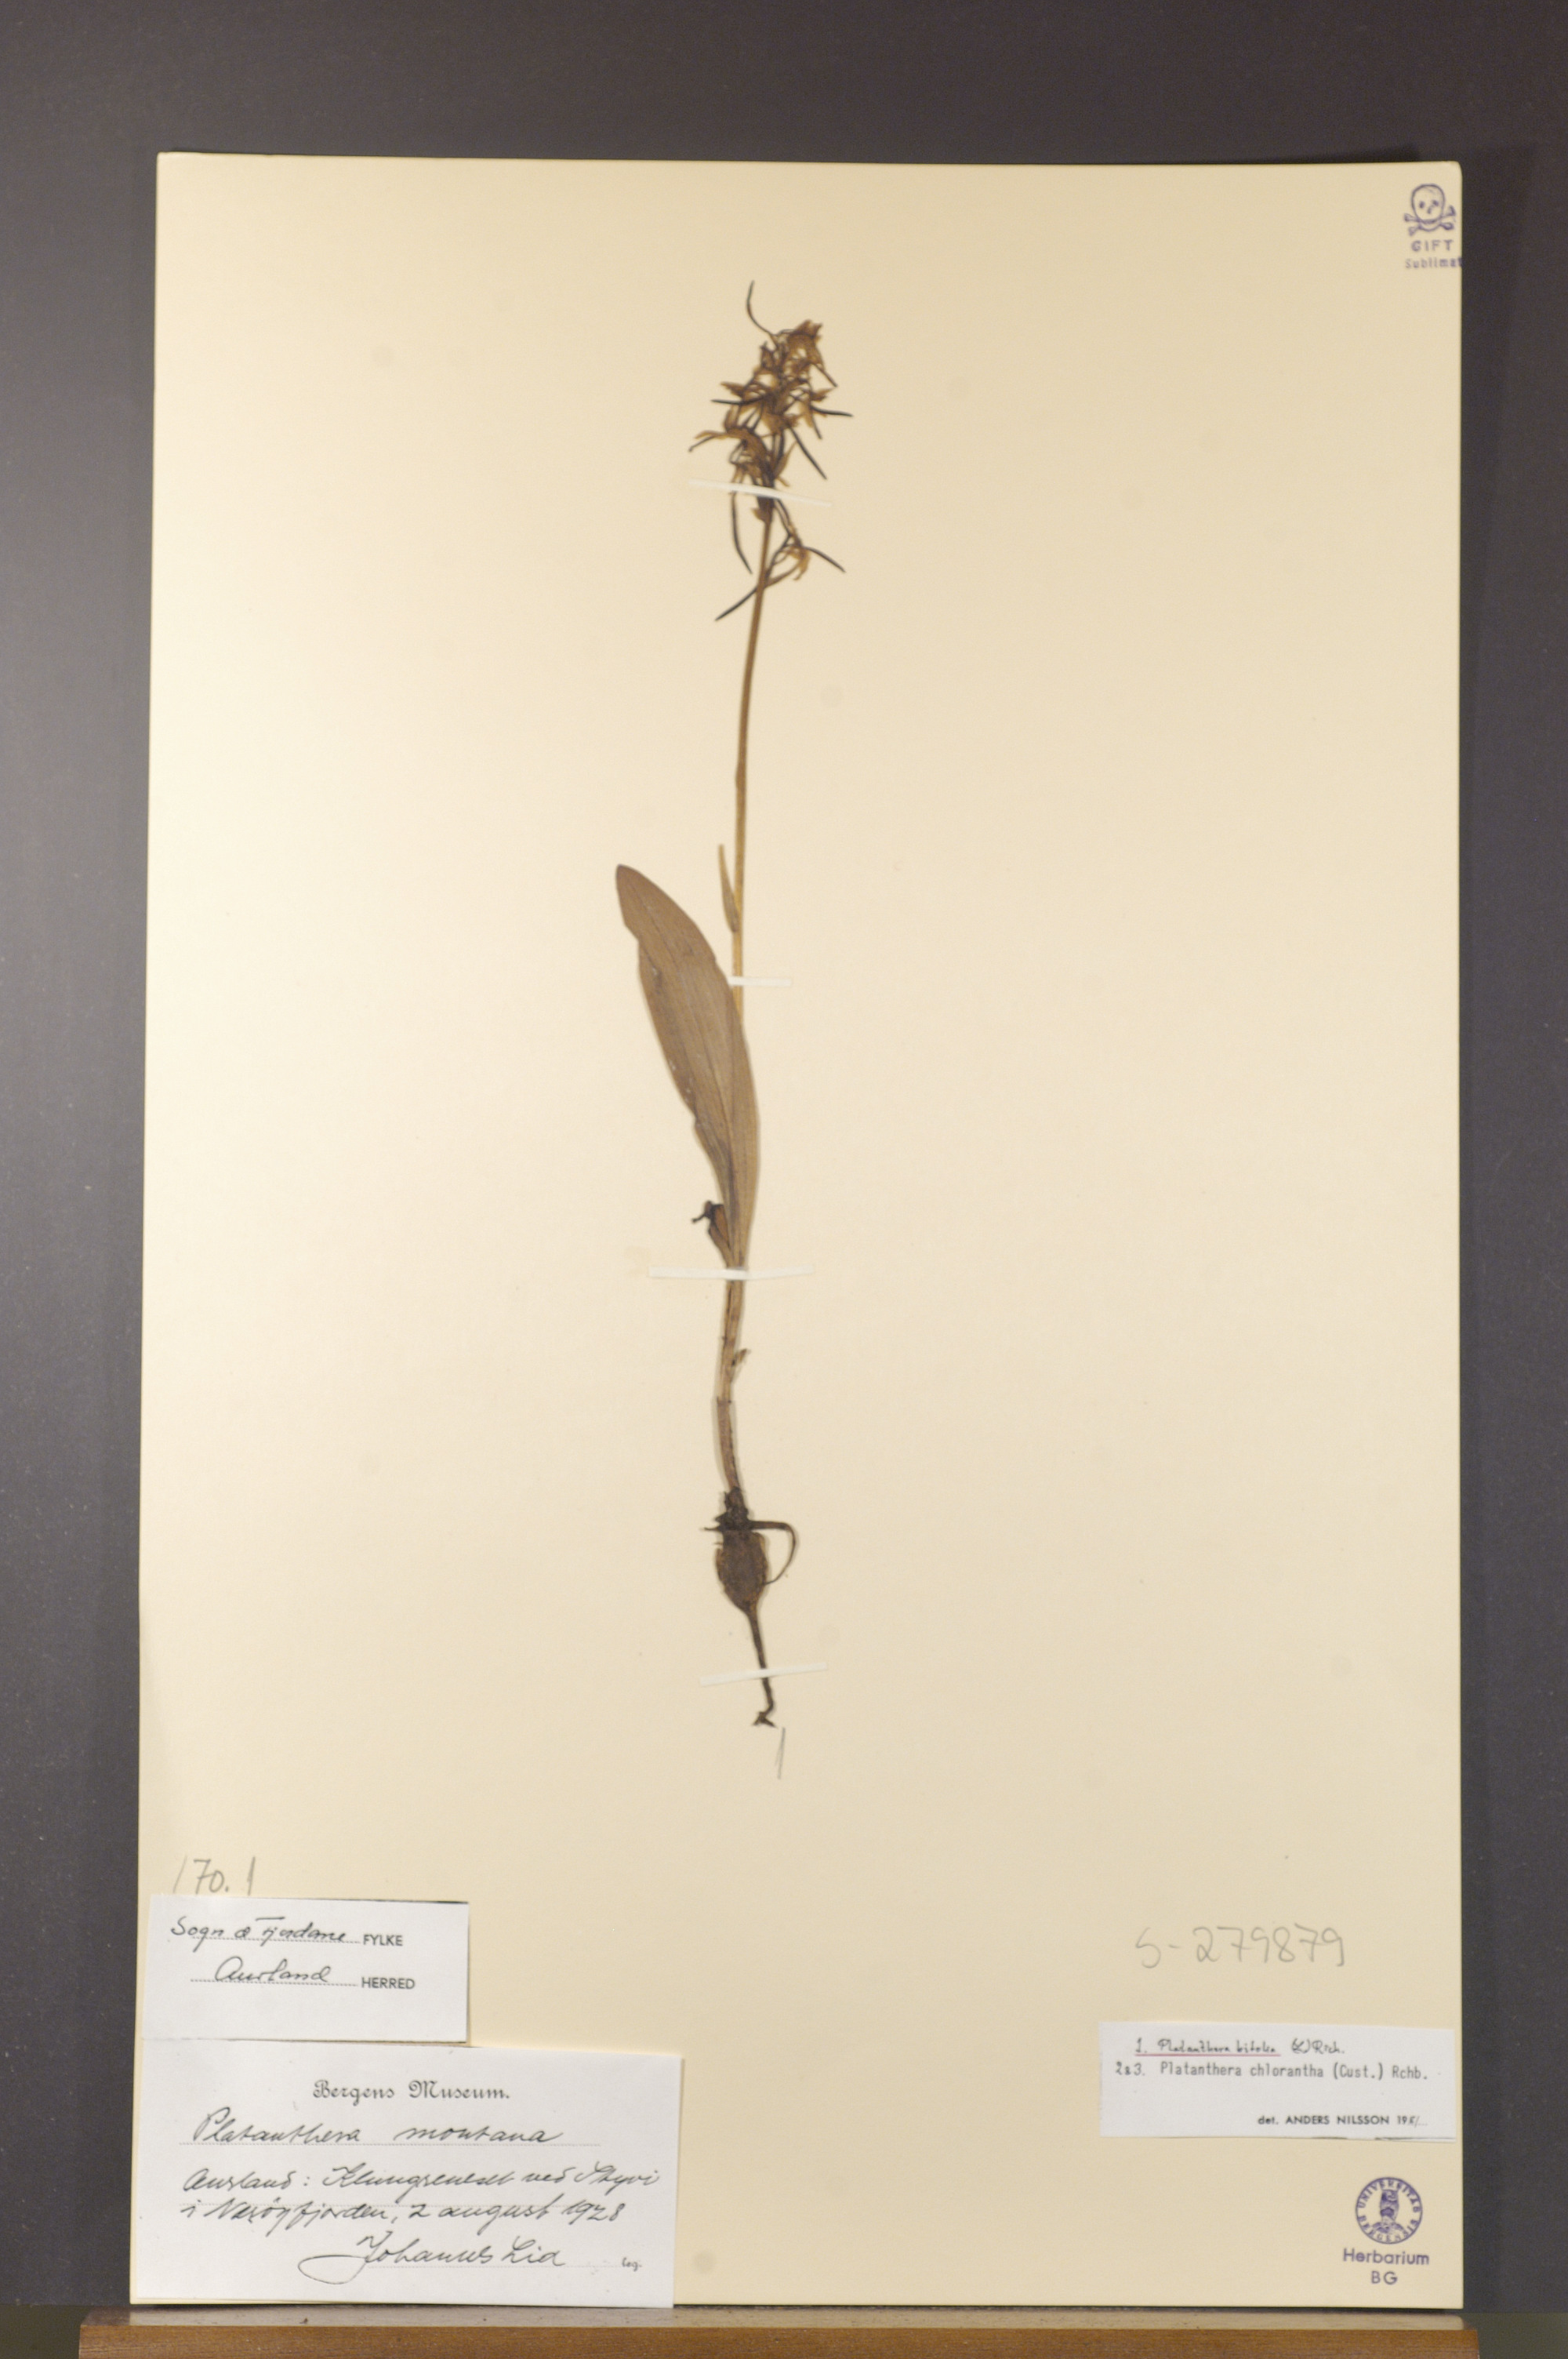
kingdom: Plantae
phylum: Tracheophyta
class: Liliopsida
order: Asparagales
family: Orchidaceae
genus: Platanthera
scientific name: Platanthera bifolia
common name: Lesser butterfly-orchid
